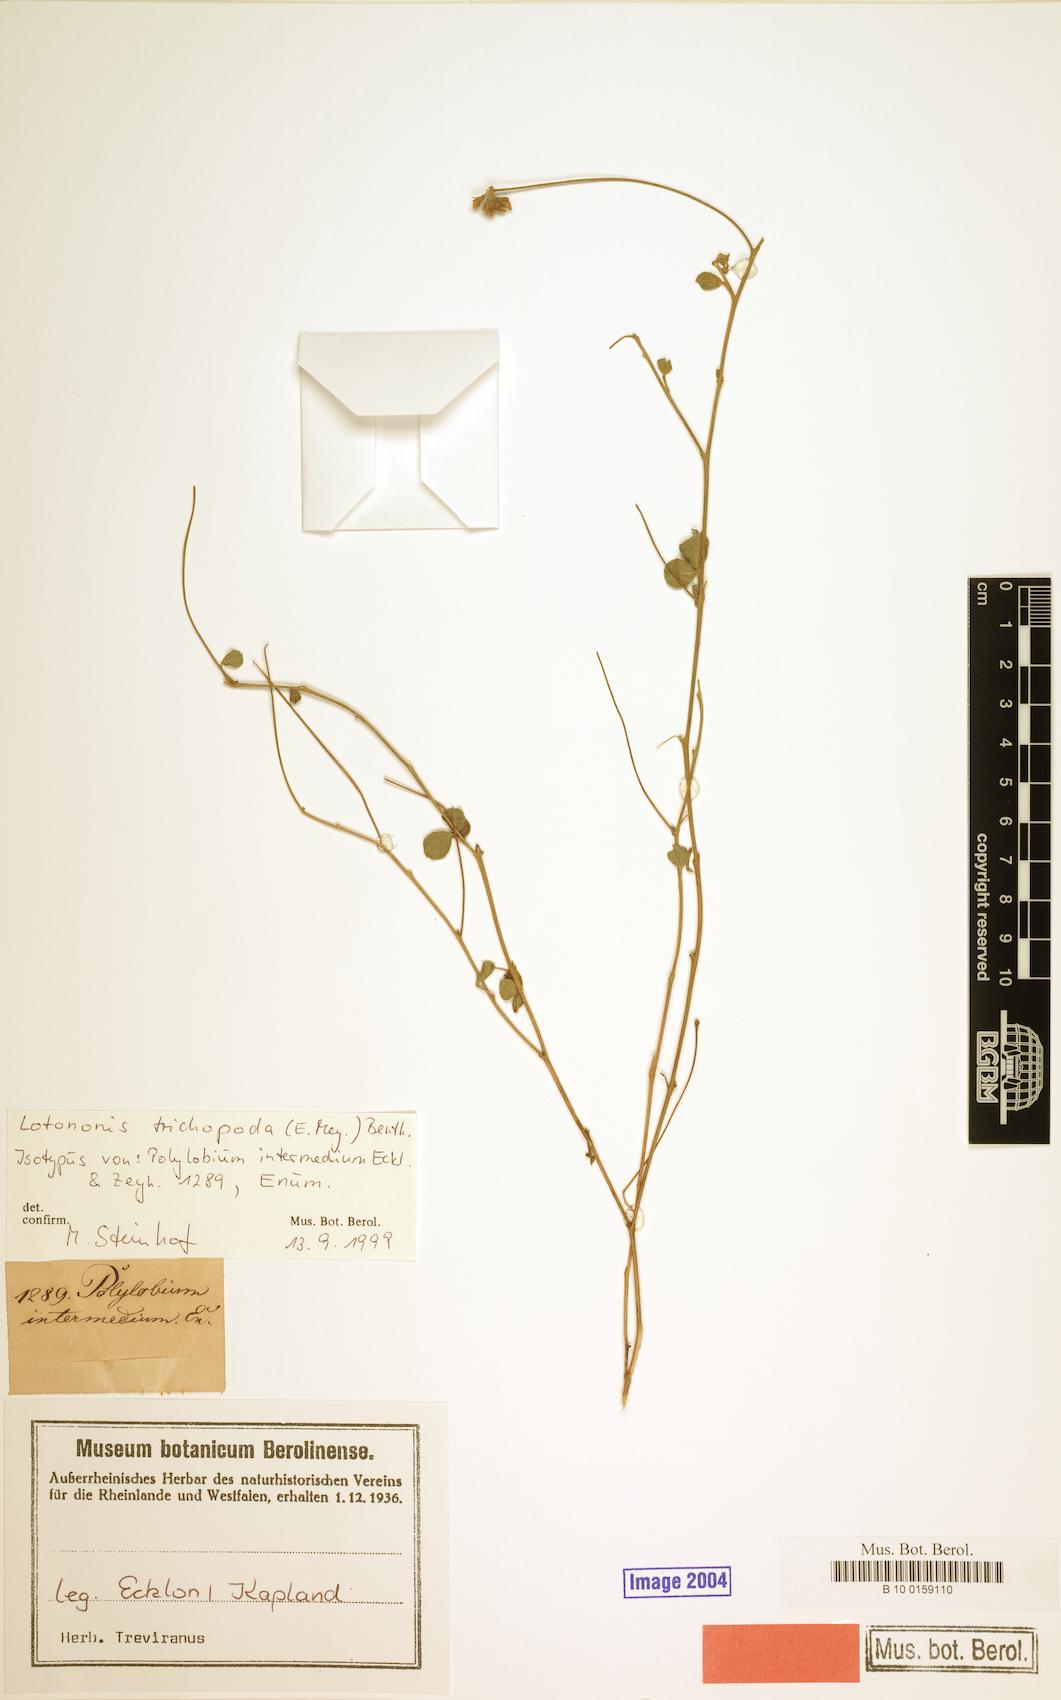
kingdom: Plantae
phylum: Tracheophyta
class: Magnoliopsida
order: Fabales
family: Fabaceae
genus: Lotononis
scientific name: Lotononis glabra
